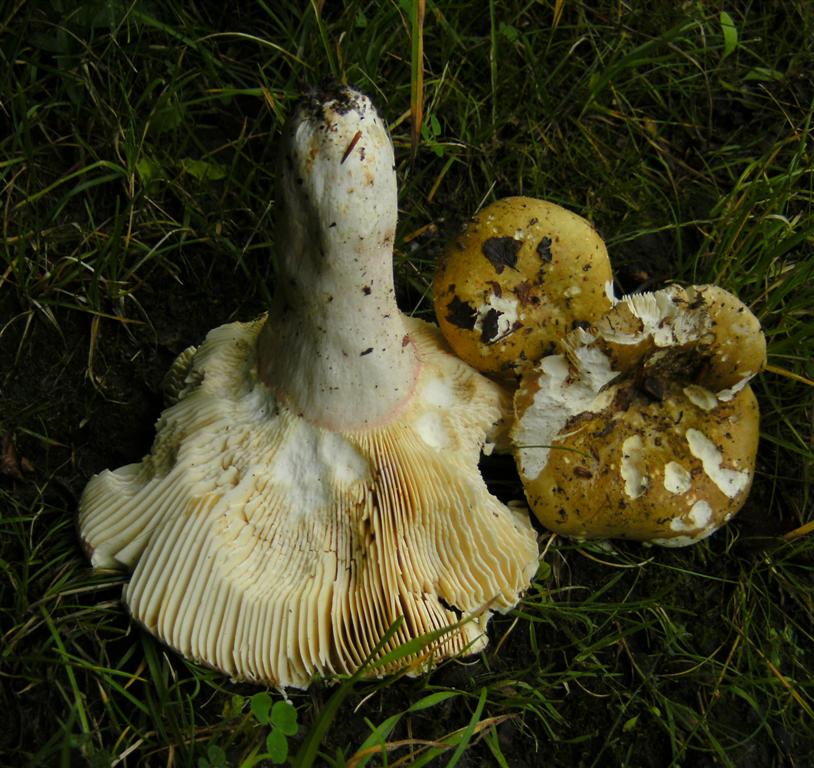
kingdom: Fungi
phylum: Basidiomycota
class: Agaricomycetes
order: Russulales
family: Russulaceae
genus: Russula
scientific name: Russula olivacea
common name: stor skørhat
